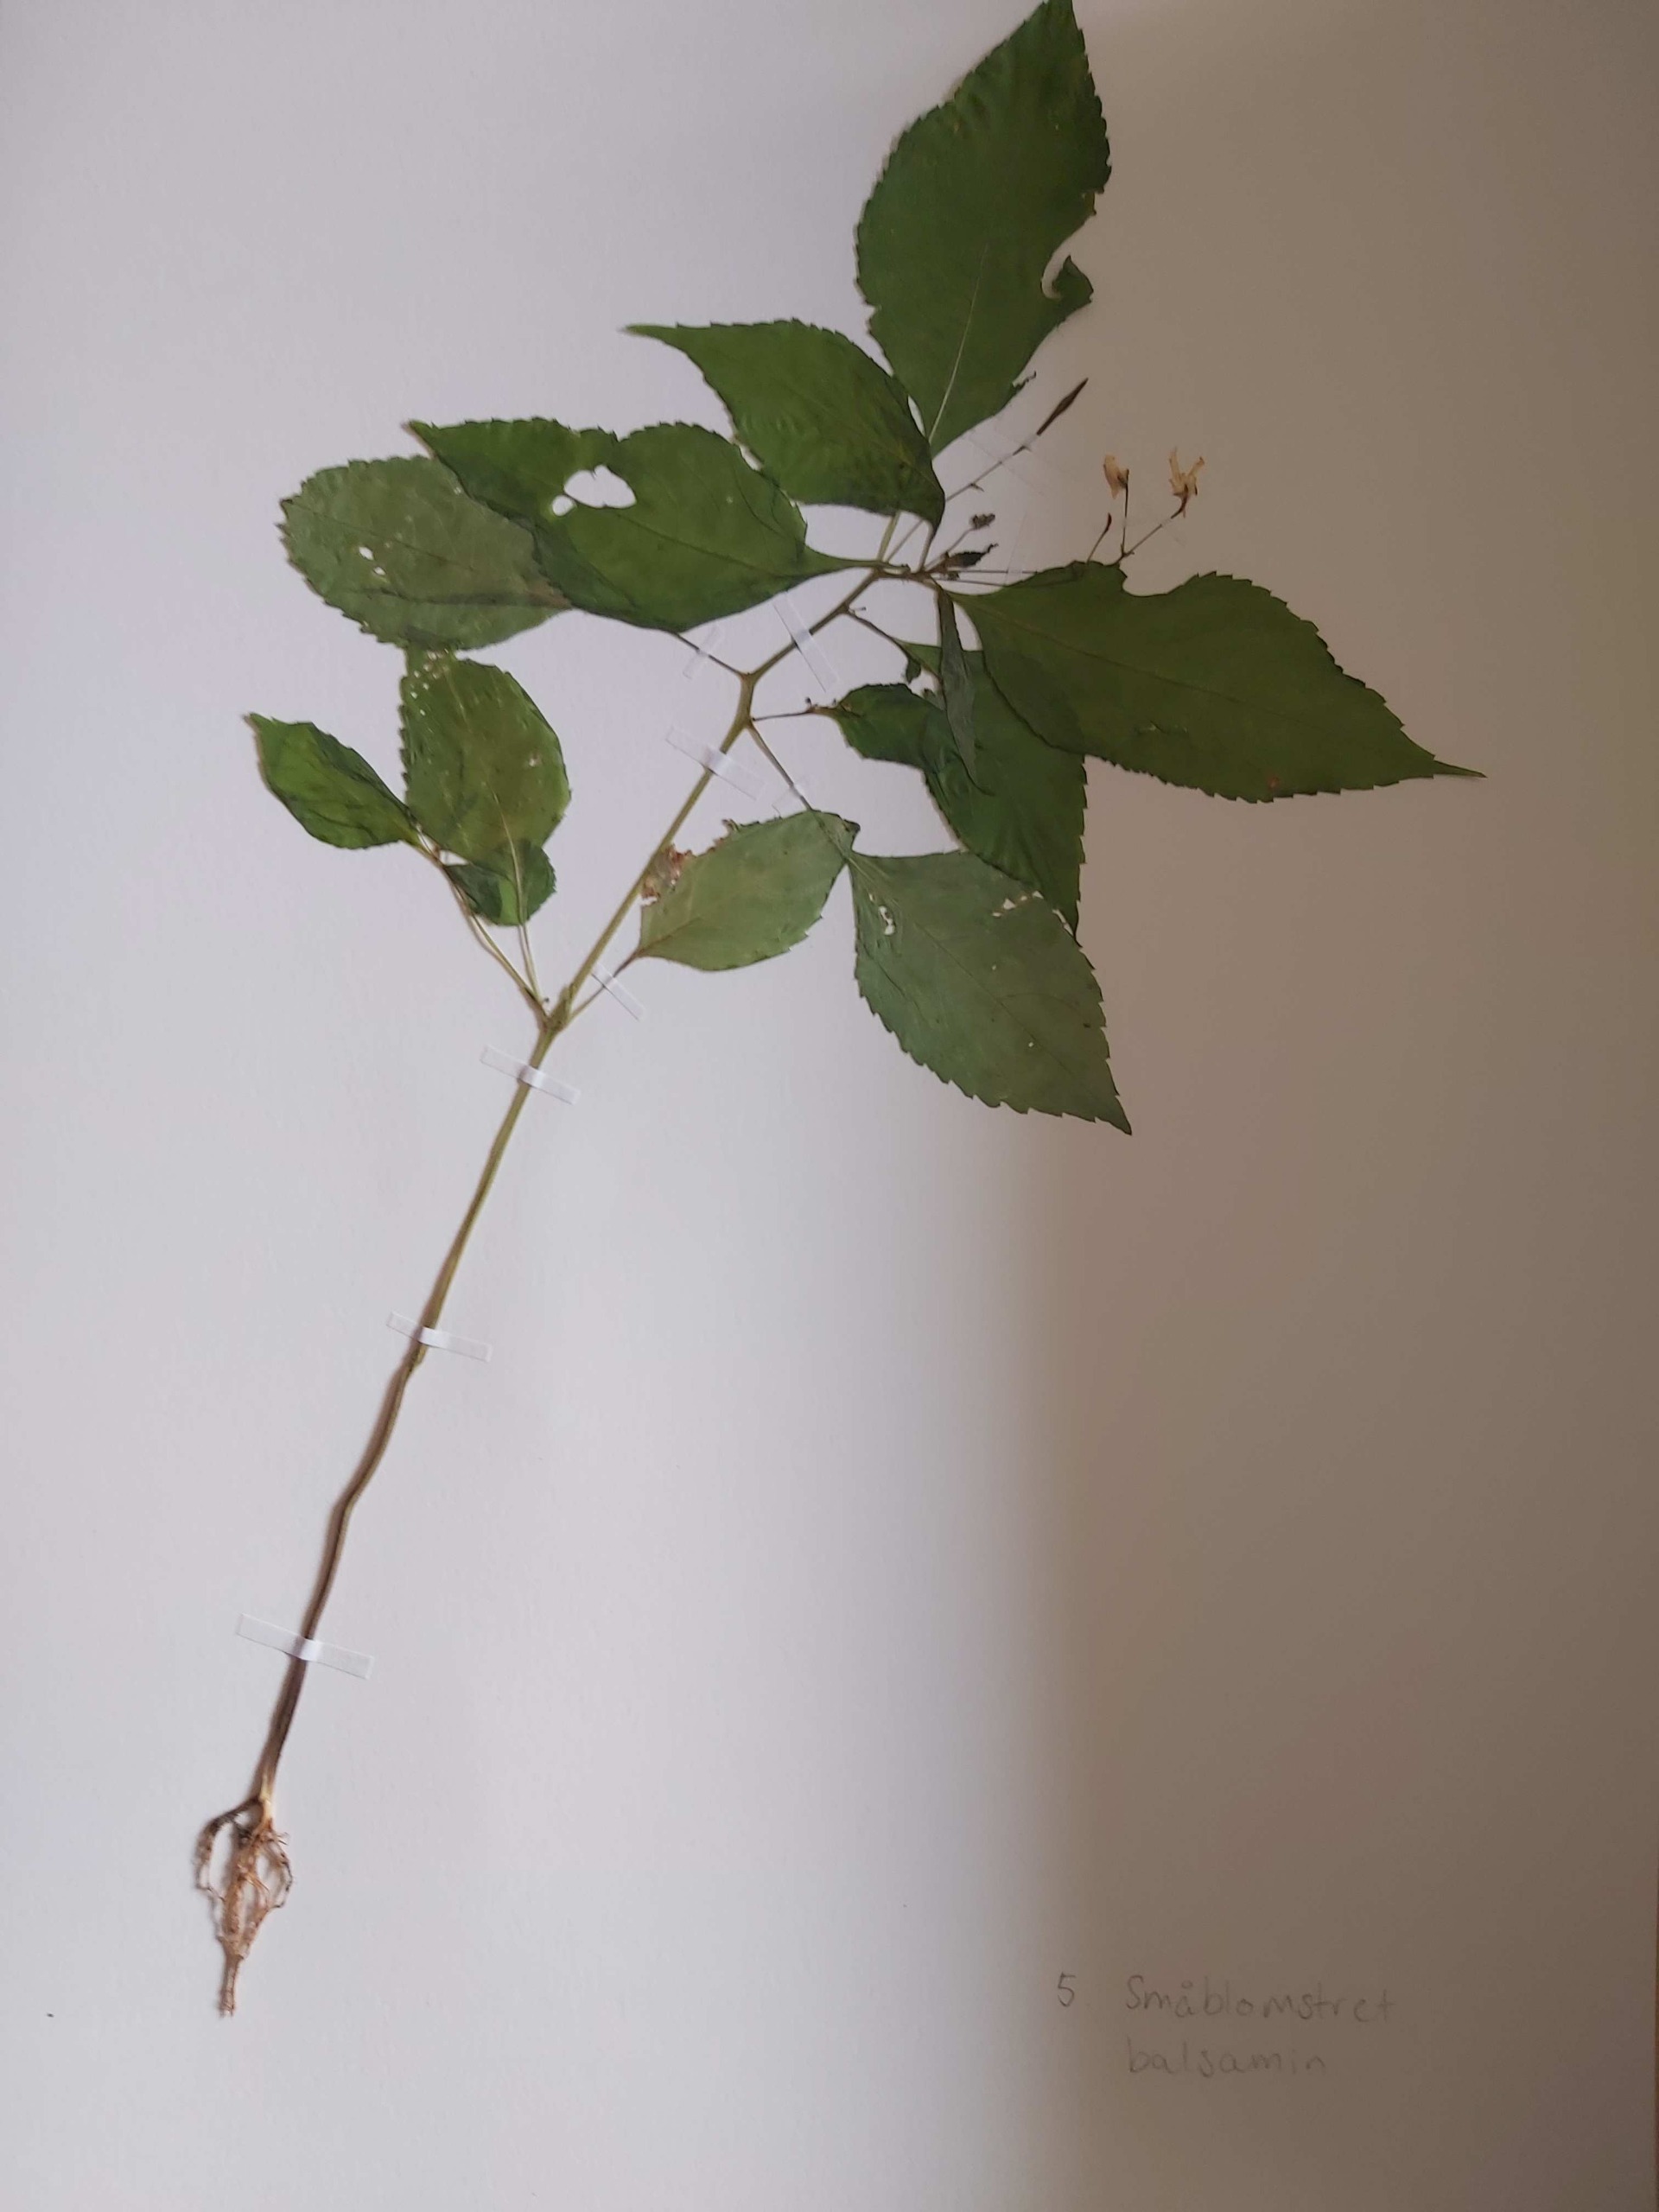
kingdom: Plantae
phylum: Tracheophyta
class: Magnoliopsida
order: Ericales
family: Balsaminaceae
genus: Impatiens
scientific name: Impatiens parviflora
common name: Småblomstret balsamin
